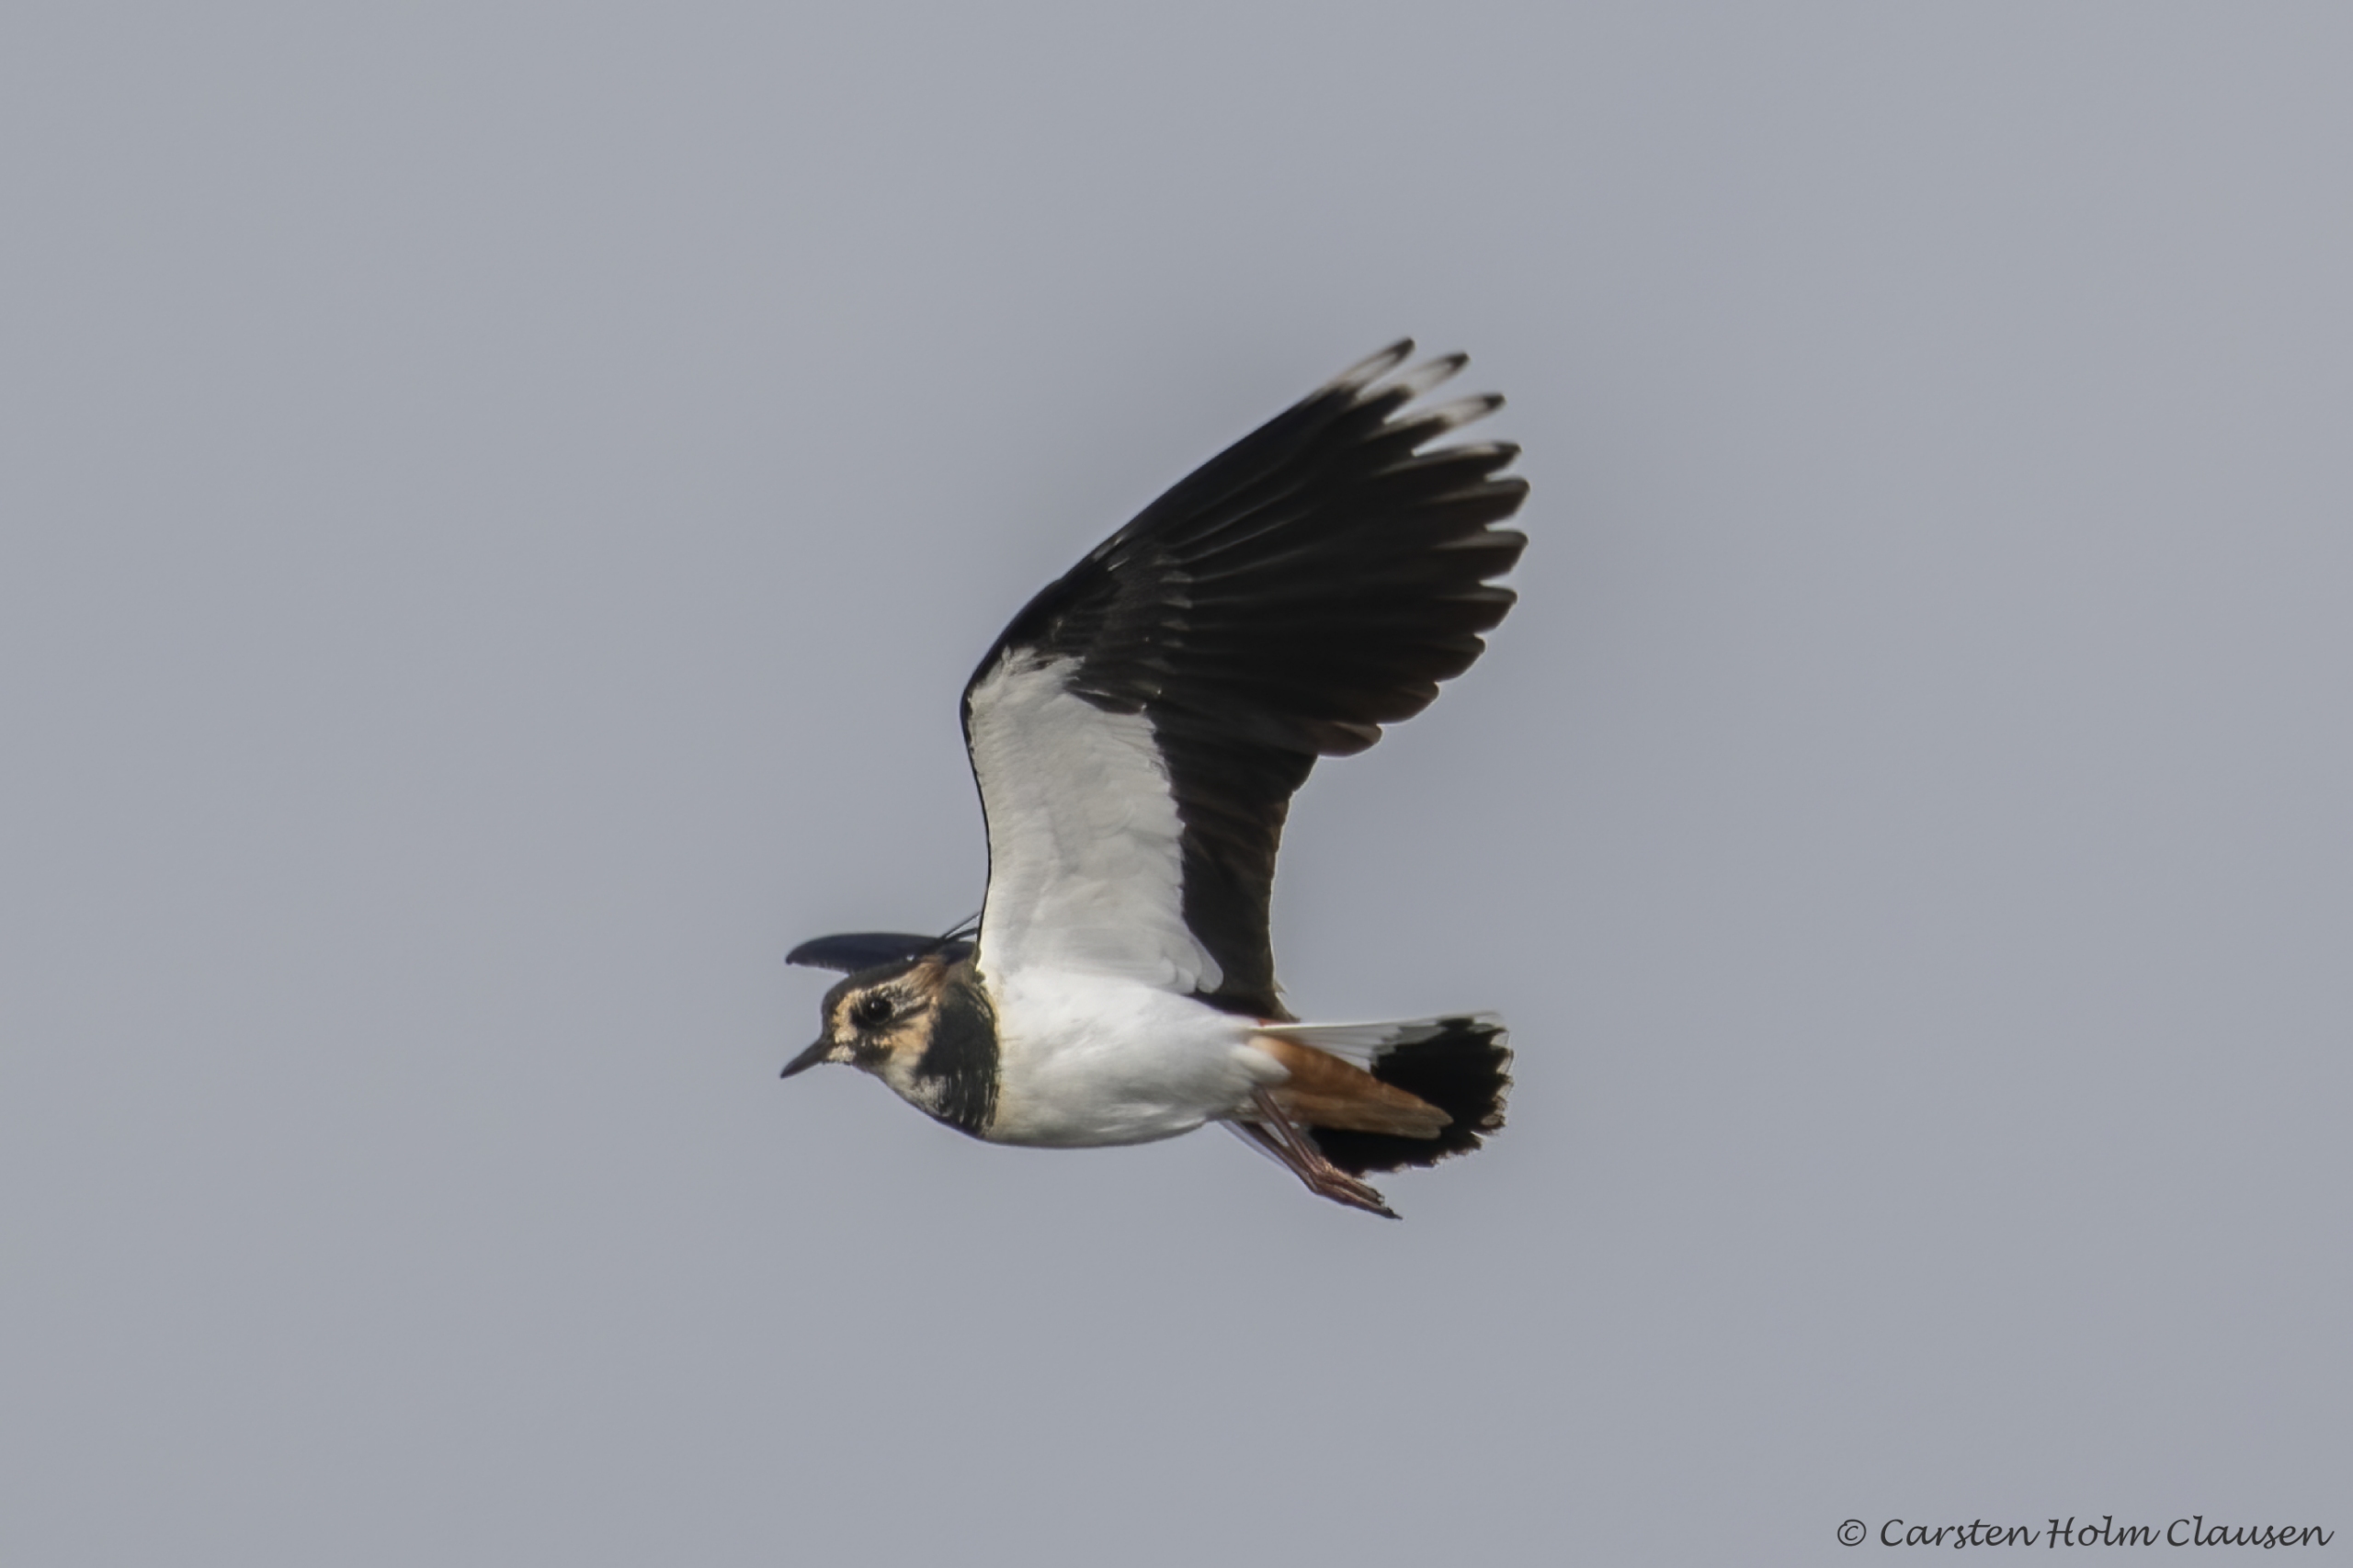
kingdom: Animalia
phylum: Chordata
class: Aves
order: Charadriiformes
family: Charadriidae
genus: Vanellus
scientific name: Vanellus vanellus
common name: Vibe
